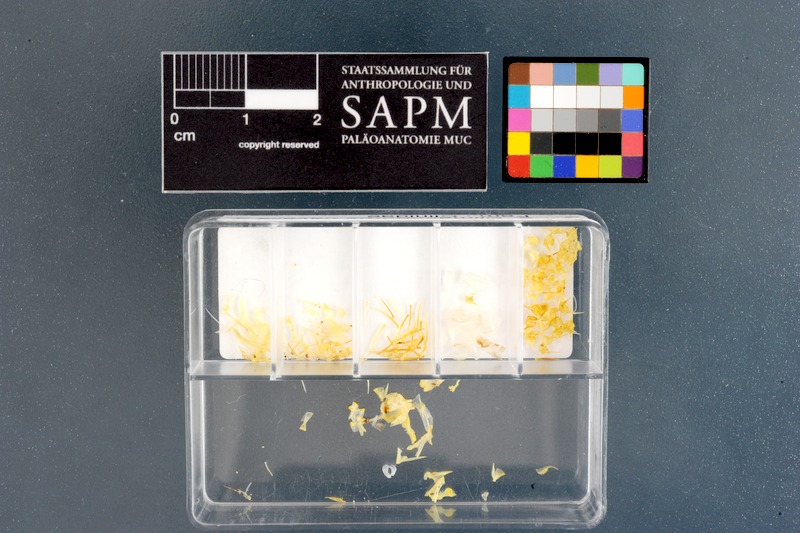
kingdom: Animalia
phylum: Chordata
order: Perciformes
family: Clinidae
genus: Climacoporus
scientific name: Climacoporus navalis
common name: Fleet klipfish
